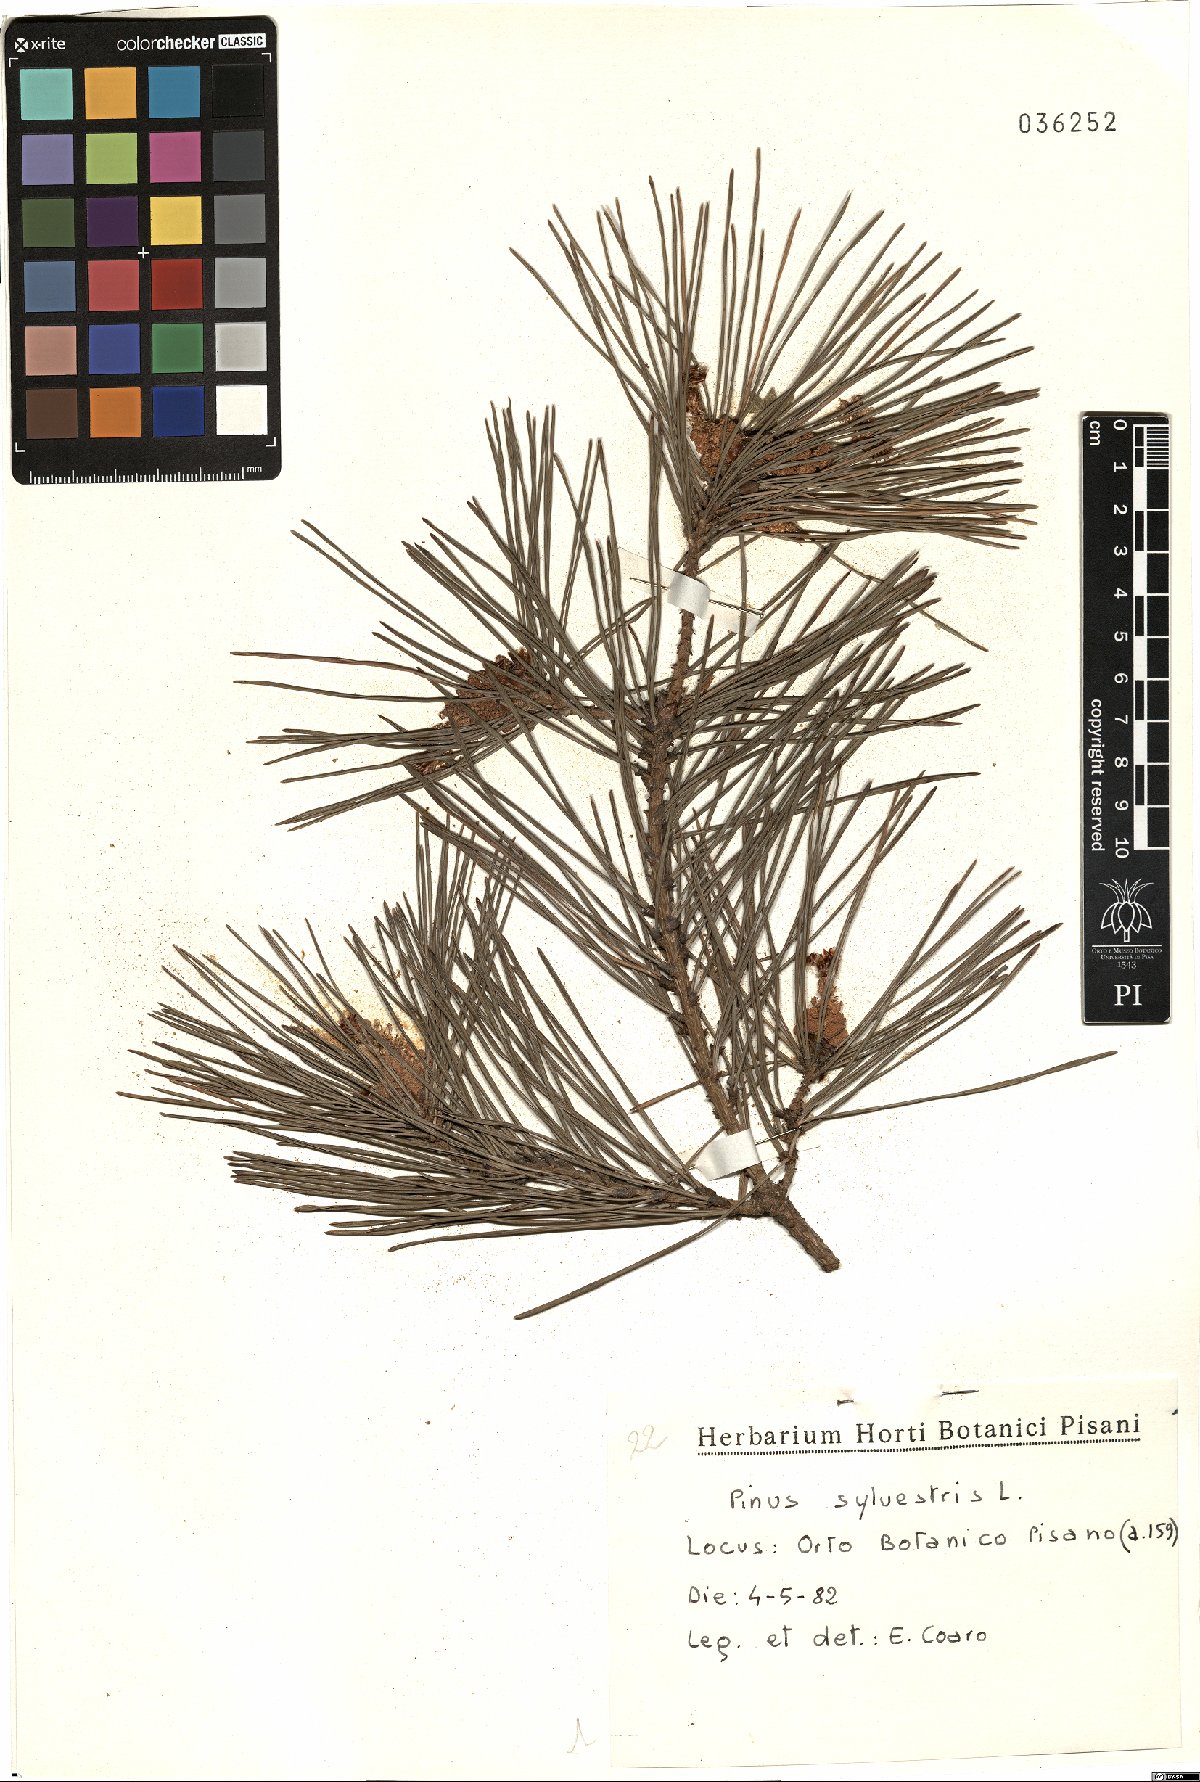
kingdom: Plantae
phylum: Tracheophyta
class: Pinopsida
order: Pinales
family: Pinaceae
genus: Pinus
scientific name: Pinus sylvestris
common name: Scots pine
